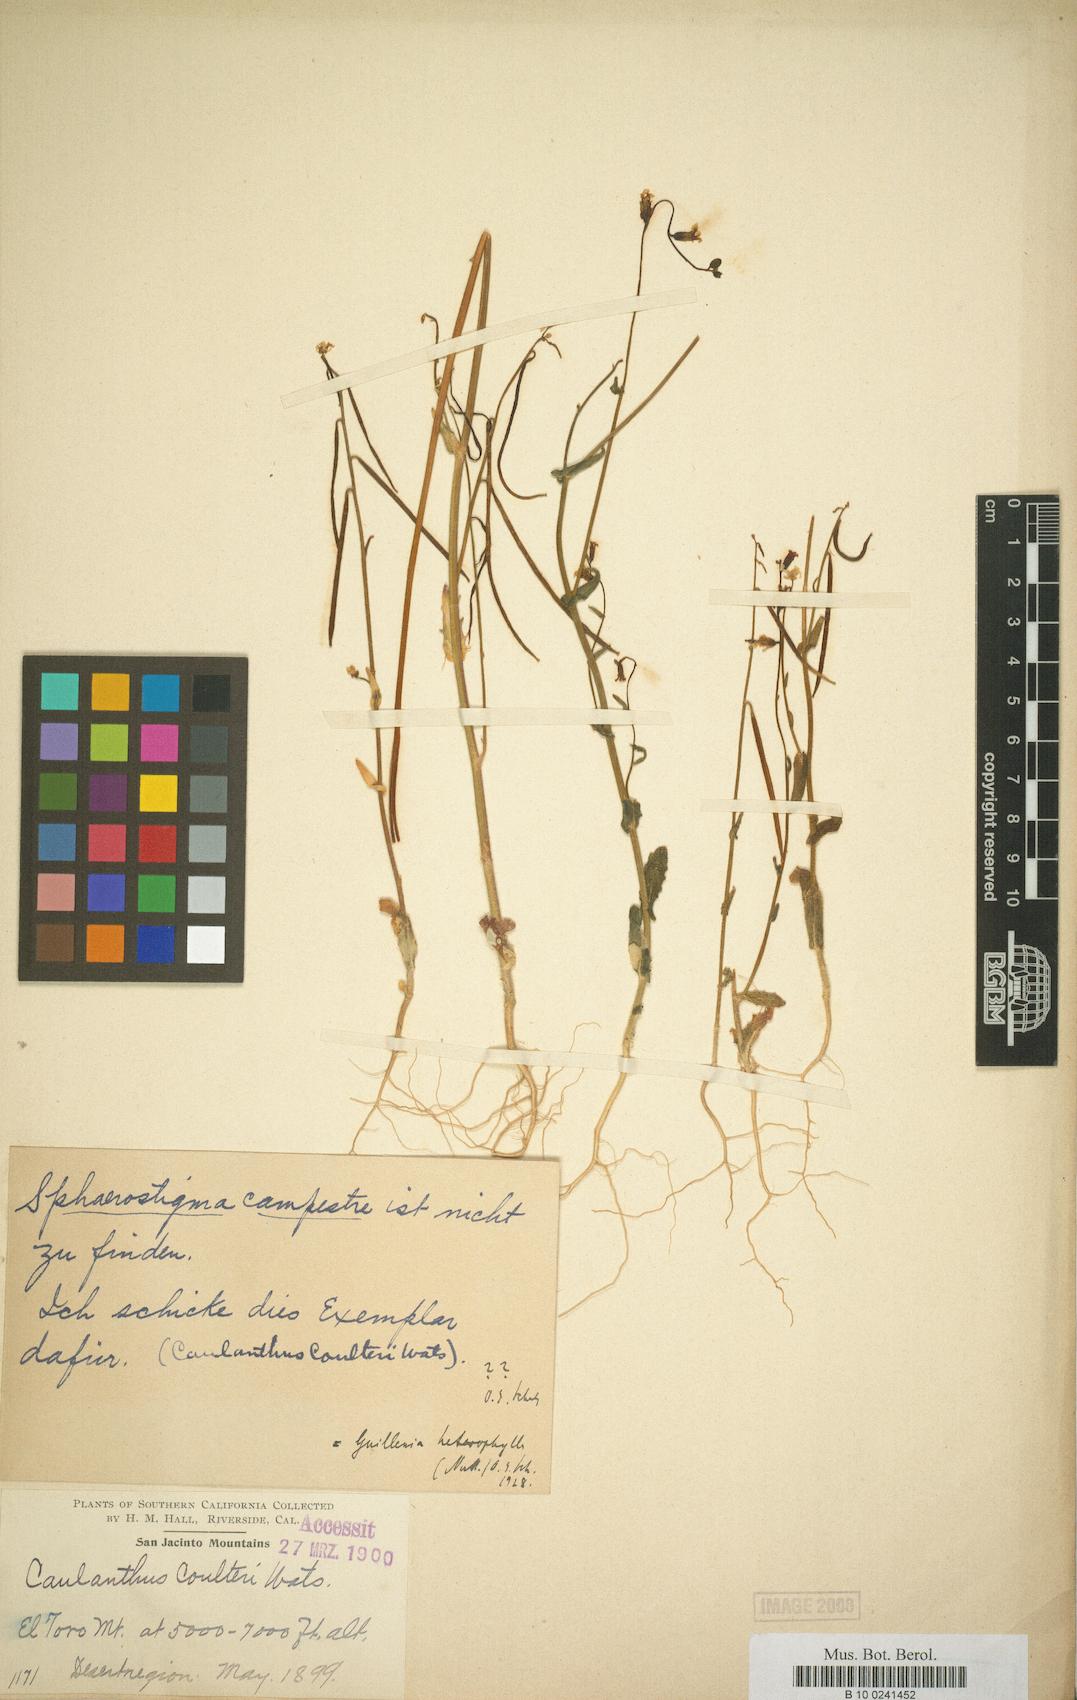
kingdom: Plantae
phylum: Tracheophyta
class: Magnoliopsida
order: Brassicales
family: Brassicaceae
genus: Streptanthus
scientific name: Streptanthus heterophyllus
